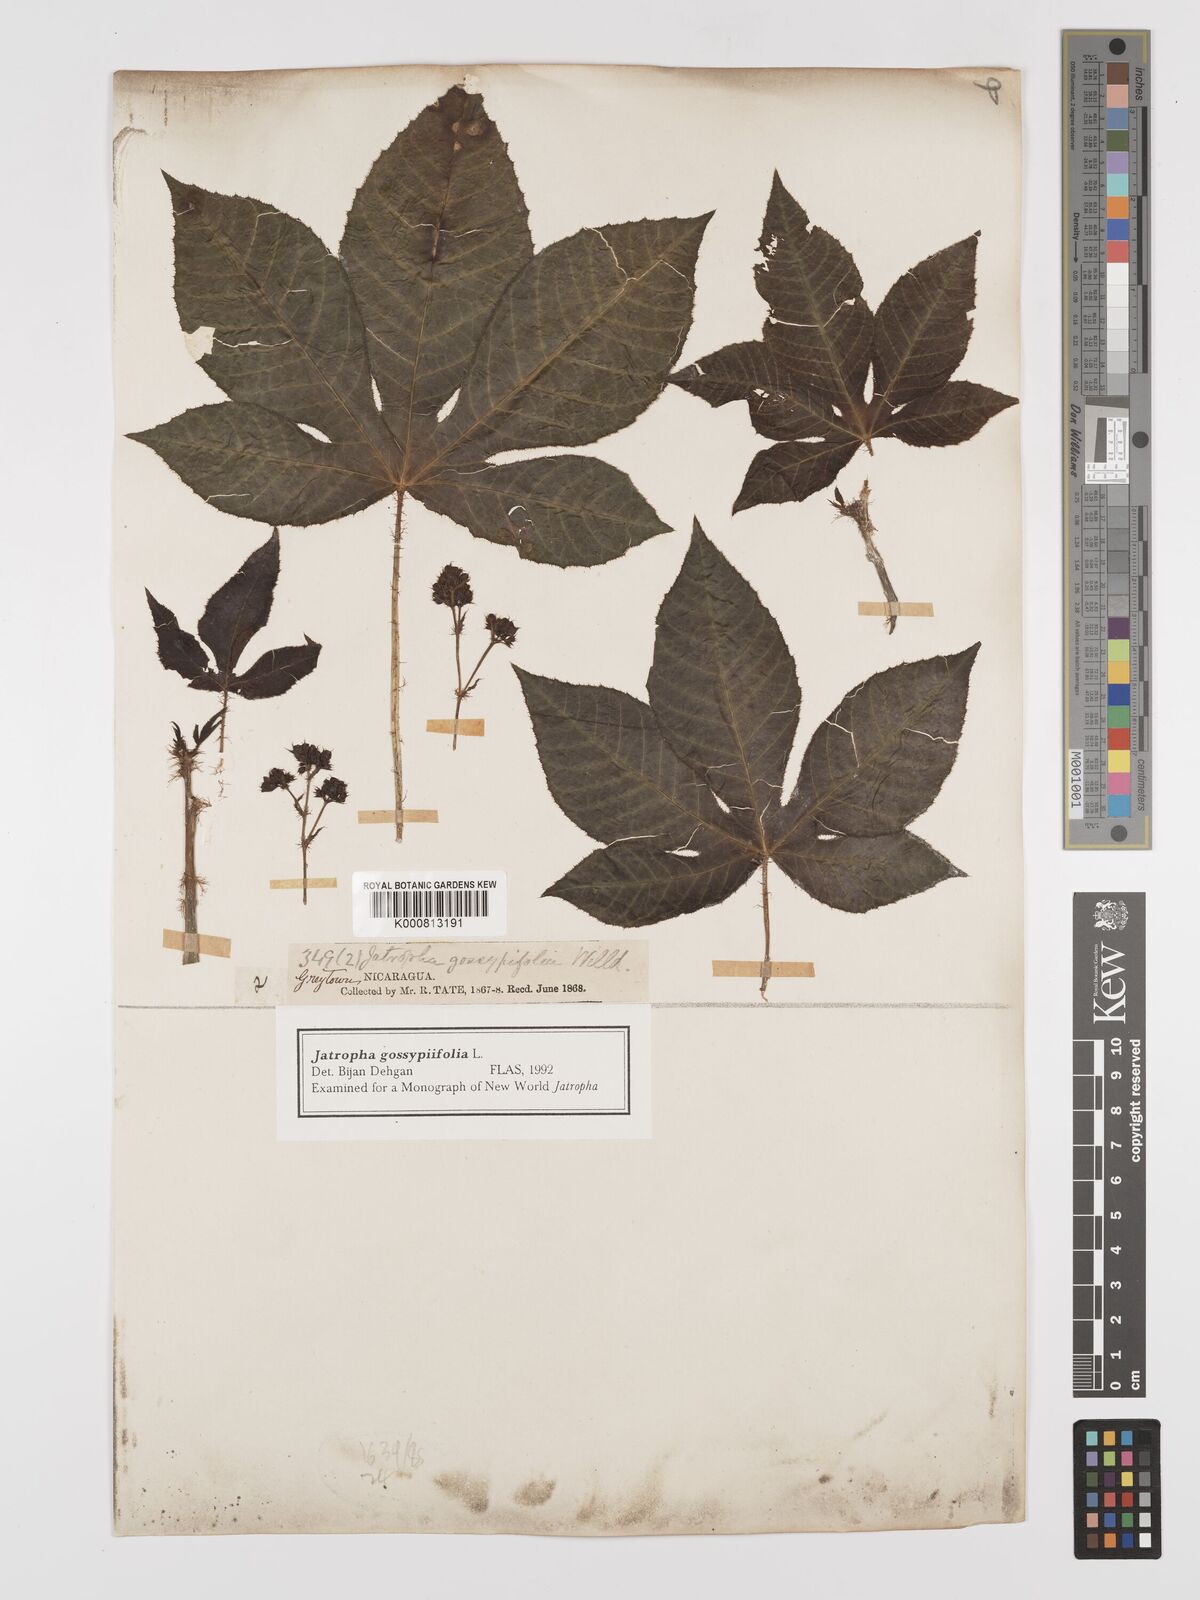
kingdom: Plantae
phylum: Tracheophyta
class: Magnoliopsida
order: Malpighiales
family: Euphorbiaceae
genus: Jatropha
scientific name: Jatropha gossypiifolia
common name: Bellyache bush
